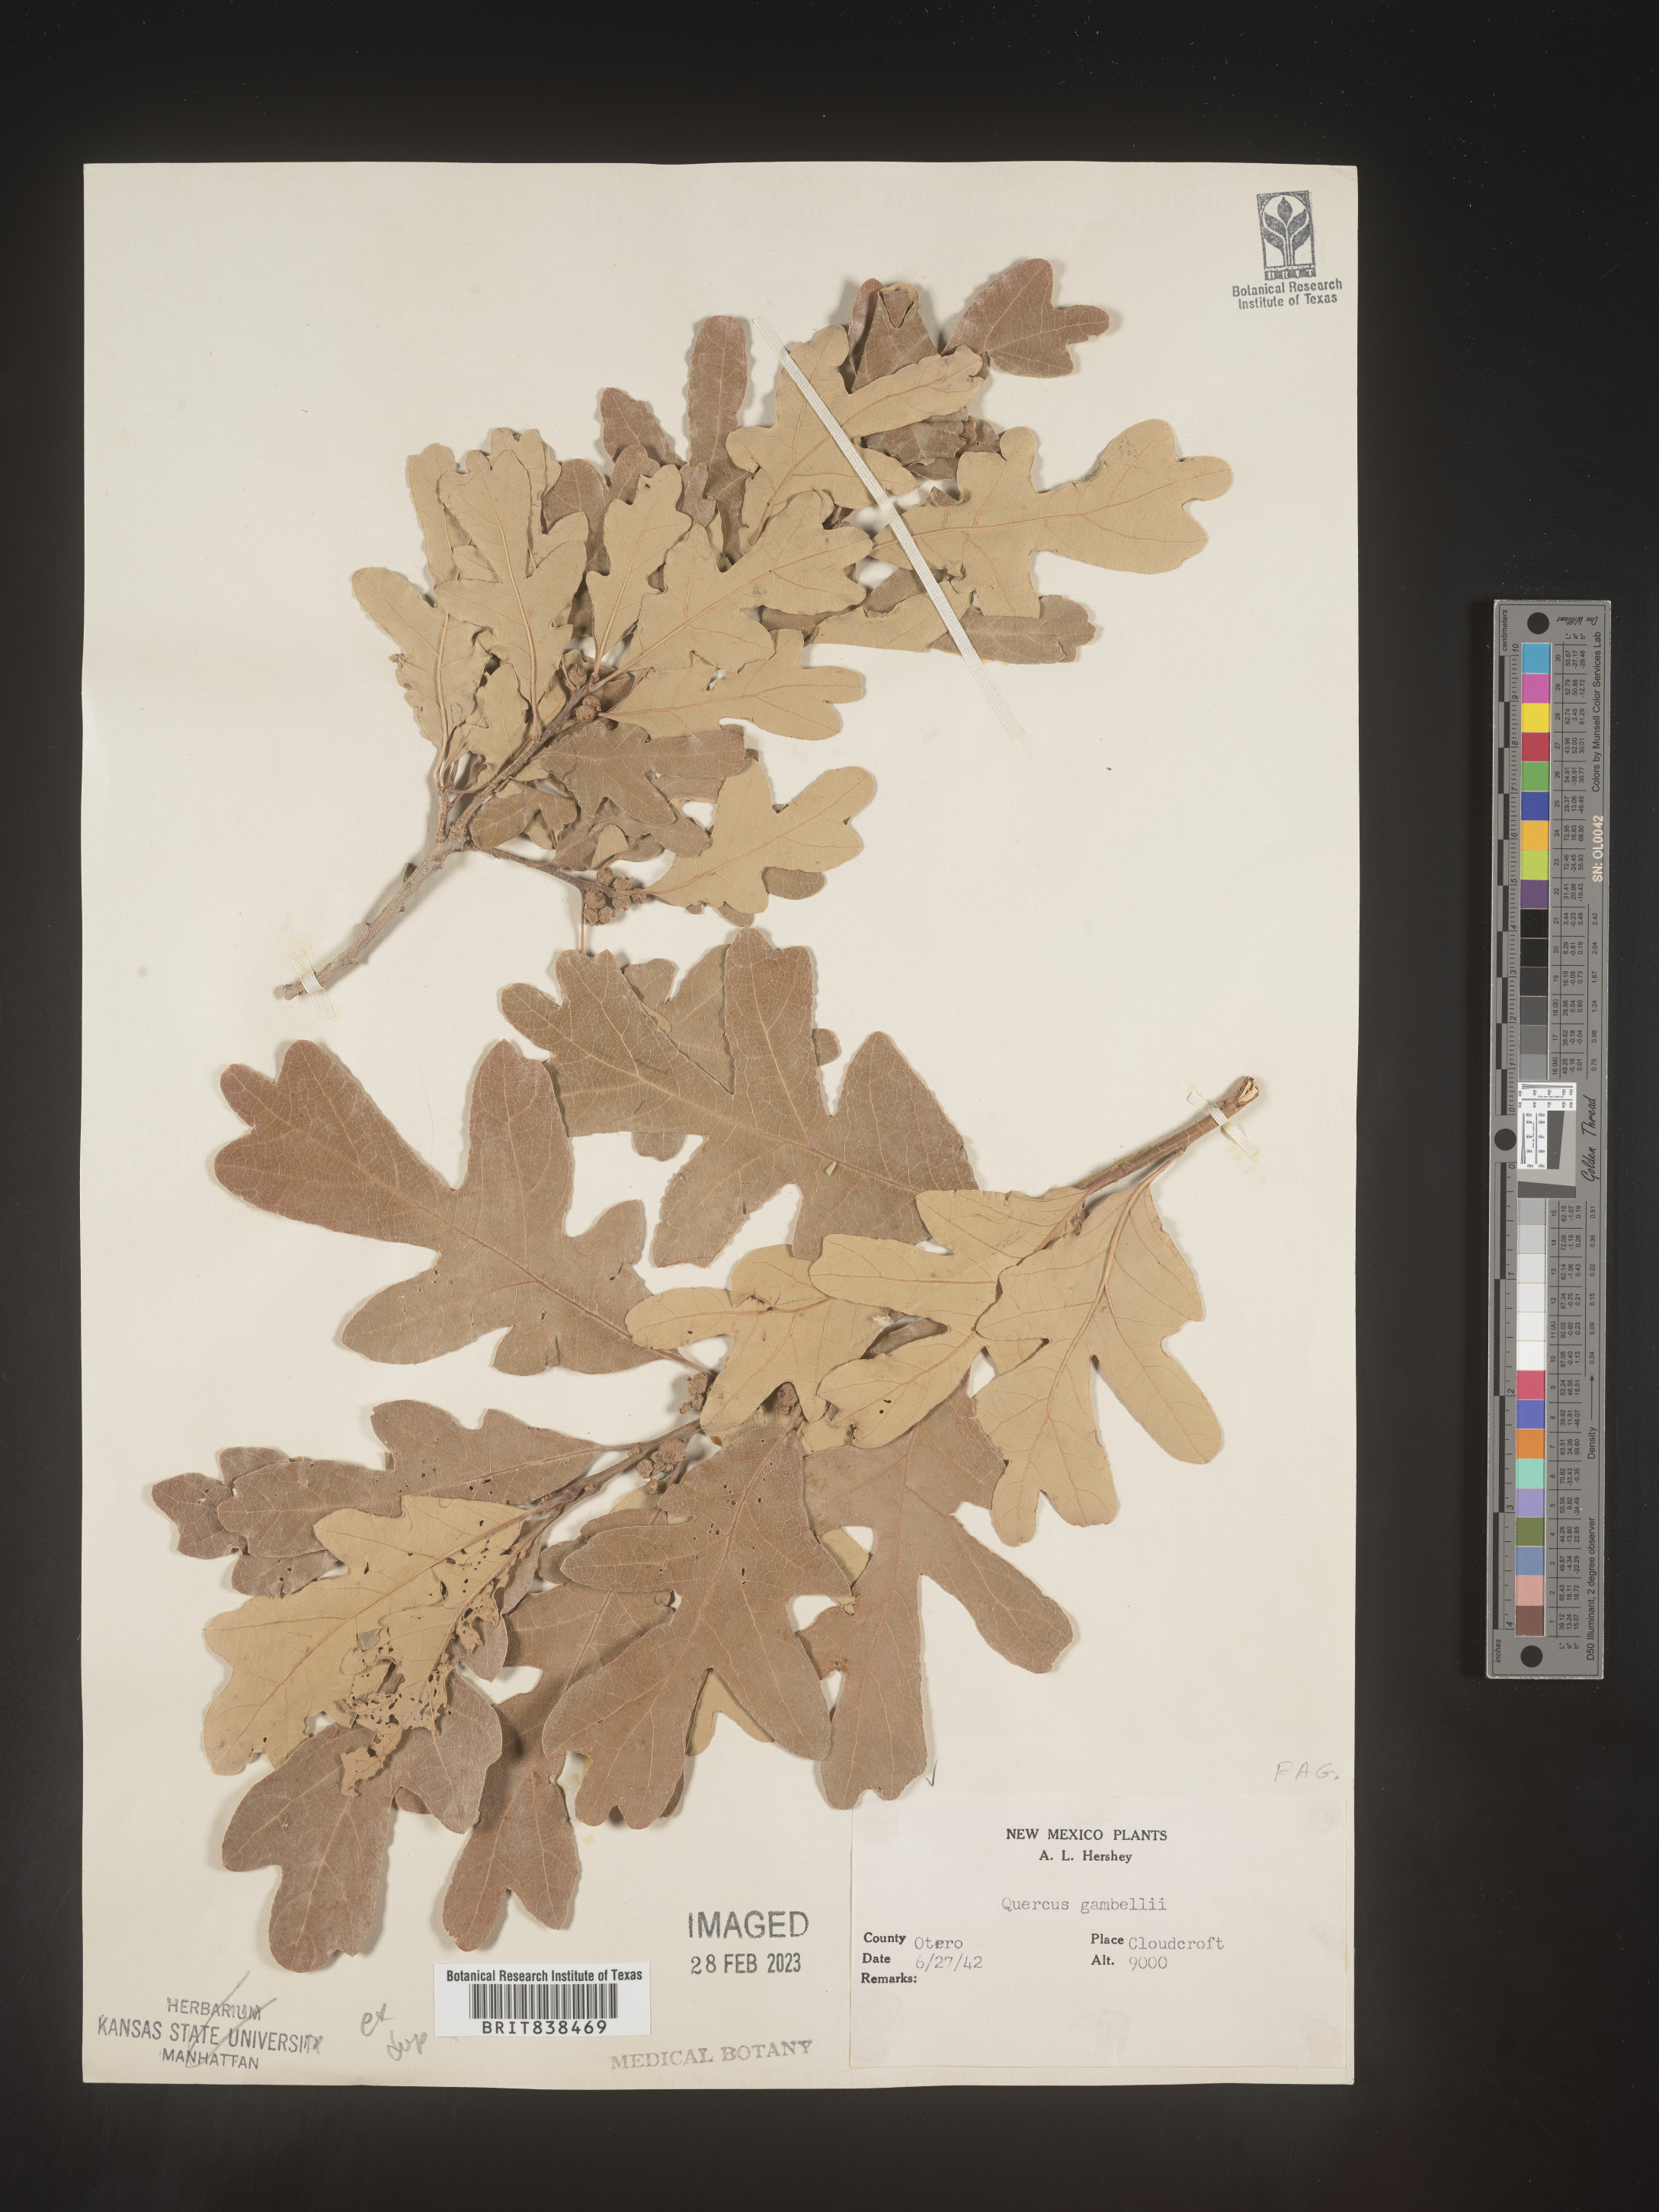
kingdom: Plantae
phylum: Tracheophyta
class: Magnoliopsida
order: Fagales
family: Fagaceae
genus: Quercus
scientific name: Quercus gambelii
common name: Gambel oak
